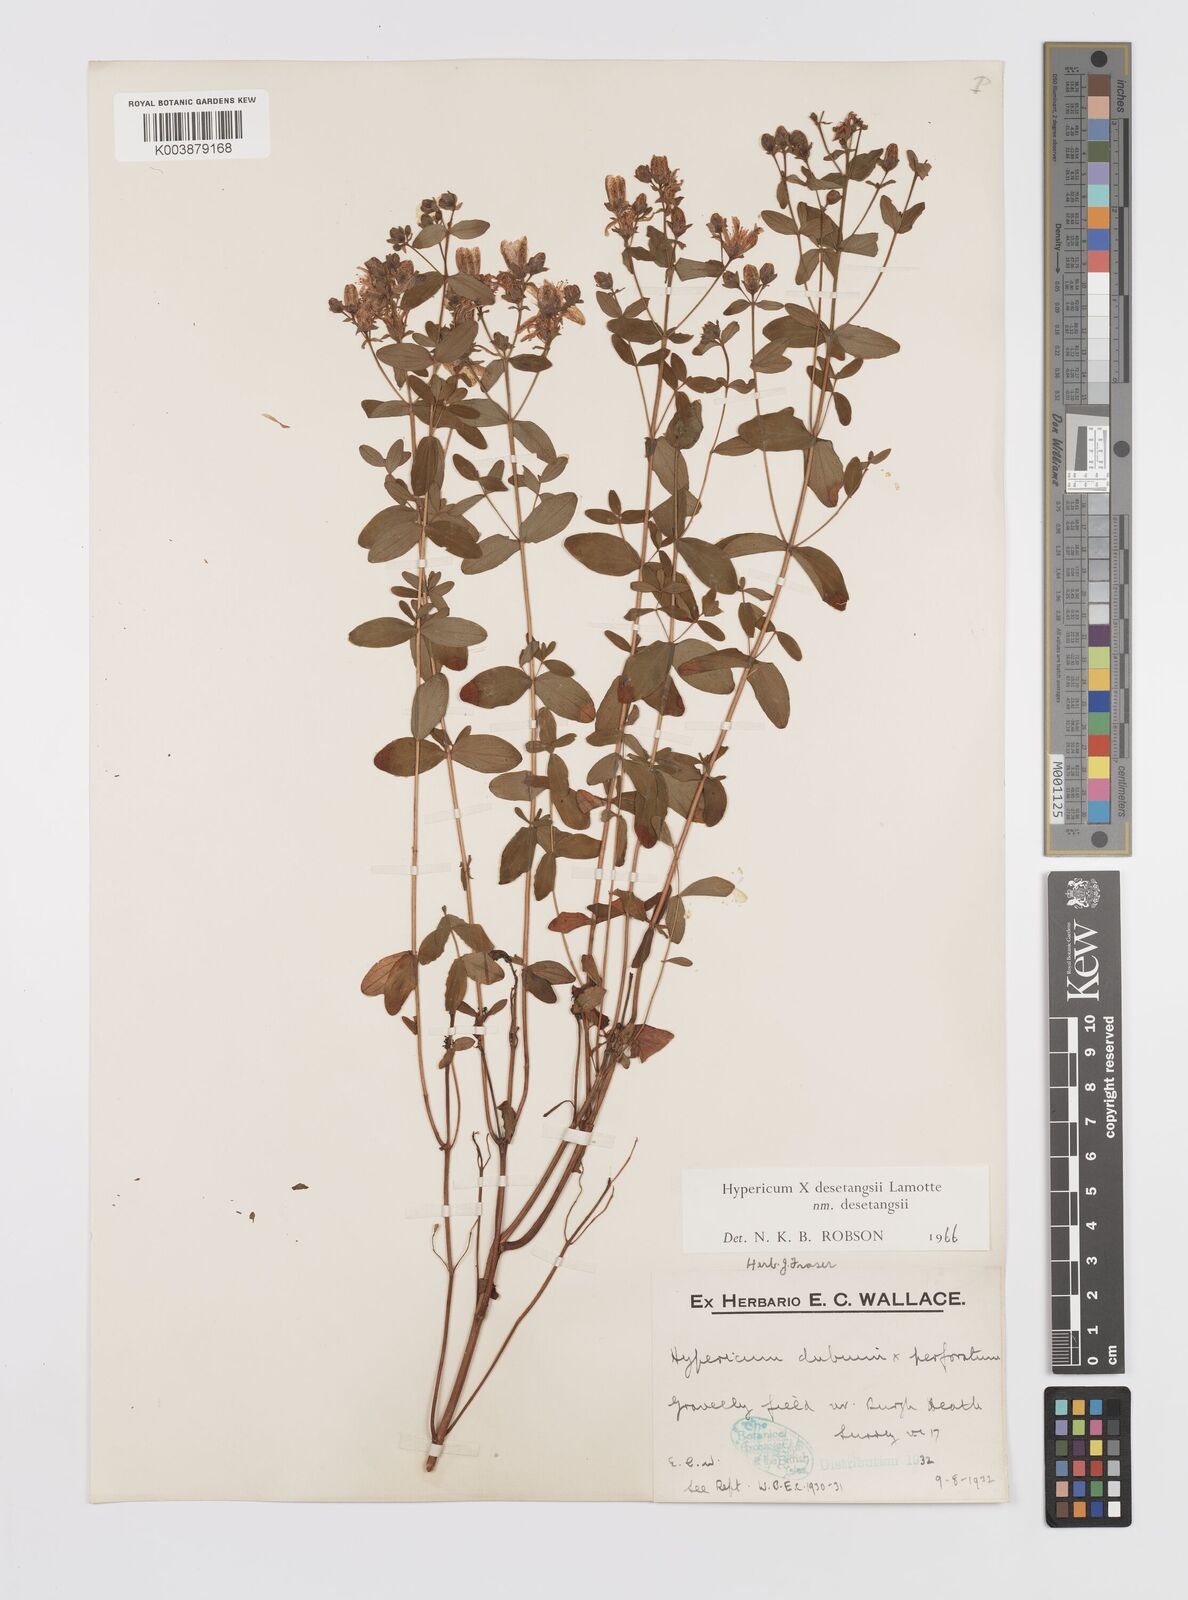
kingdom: Plantae
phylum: Tracheophyta
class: Magnoliopsida
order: Malpighiales
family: Hypericaceae
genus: Hypericum
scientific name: Hypericum undulatum
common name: Wavy st. john's-wort
